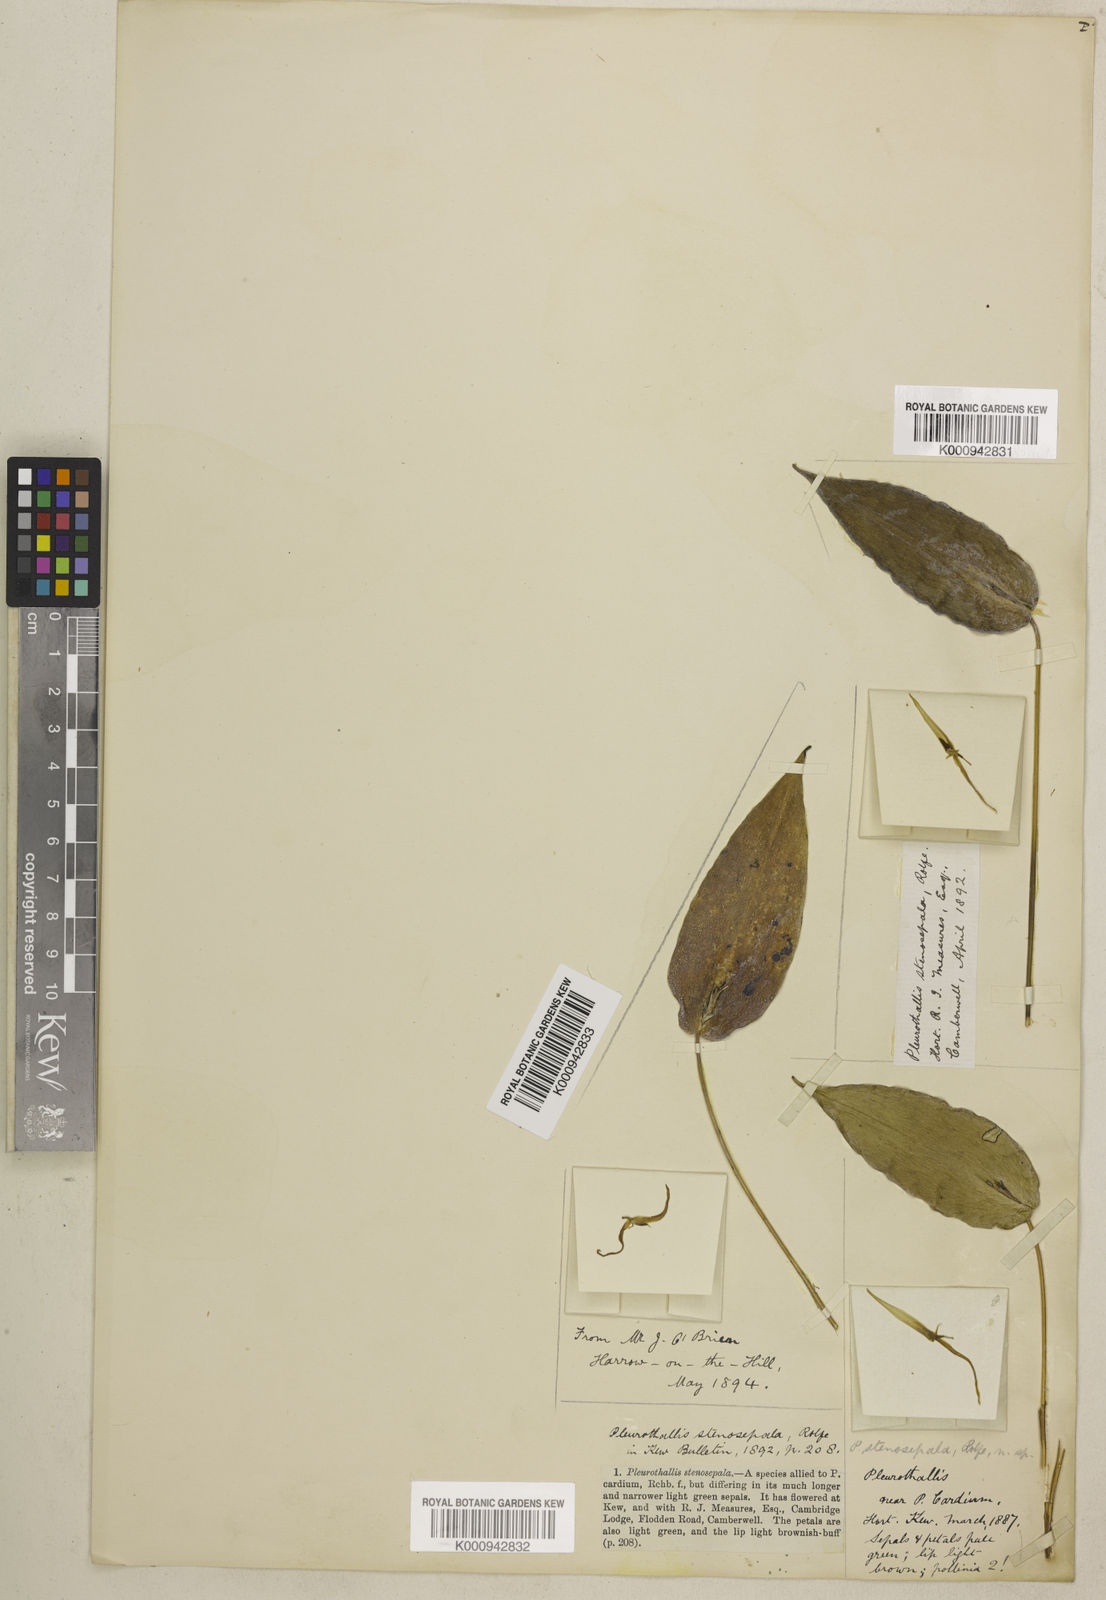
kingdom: Plantae
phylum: Tracheophyta
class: Liliopsida
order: Asparagales
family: Orchidaceae
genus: Pleurothallis
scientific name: Pleurothallis microcardia
